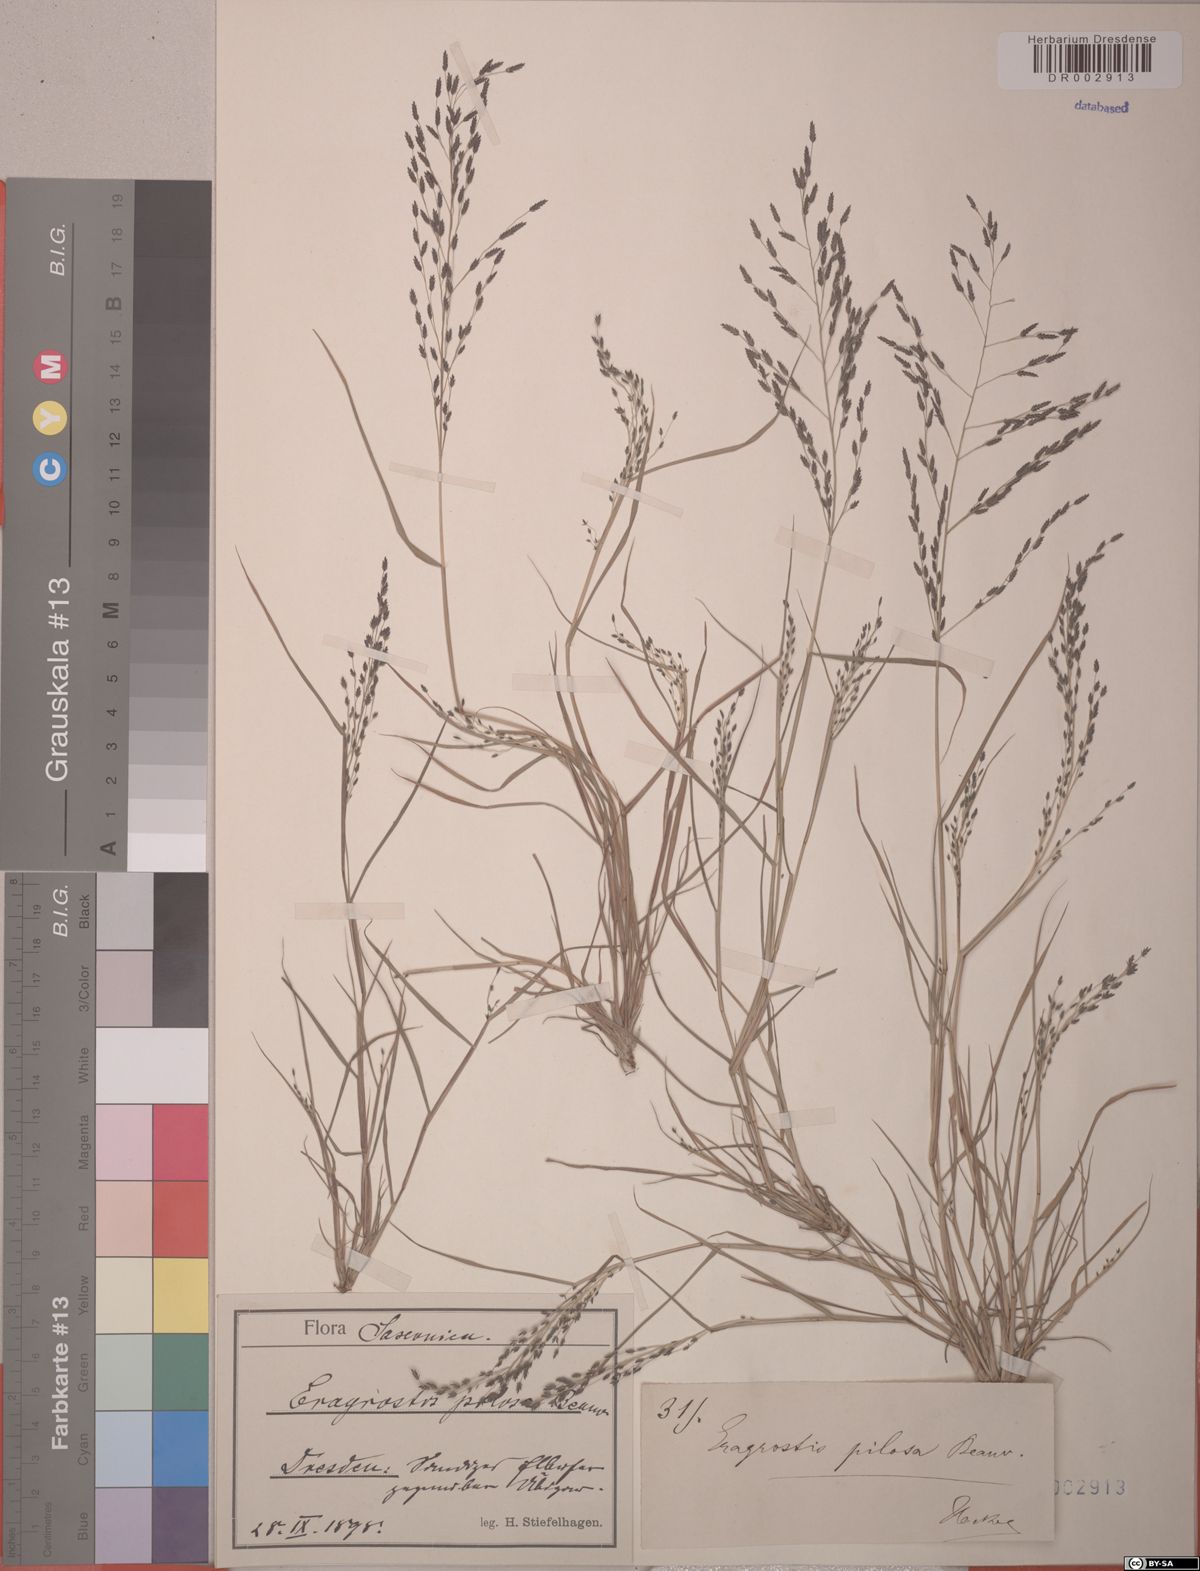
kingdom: Plantae
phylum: Tracheophyta
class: Liliopsida
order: Poales
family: Poaceae
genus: Eragrostis
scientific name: Eragrostis pilosa
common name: Indian lovegrass
